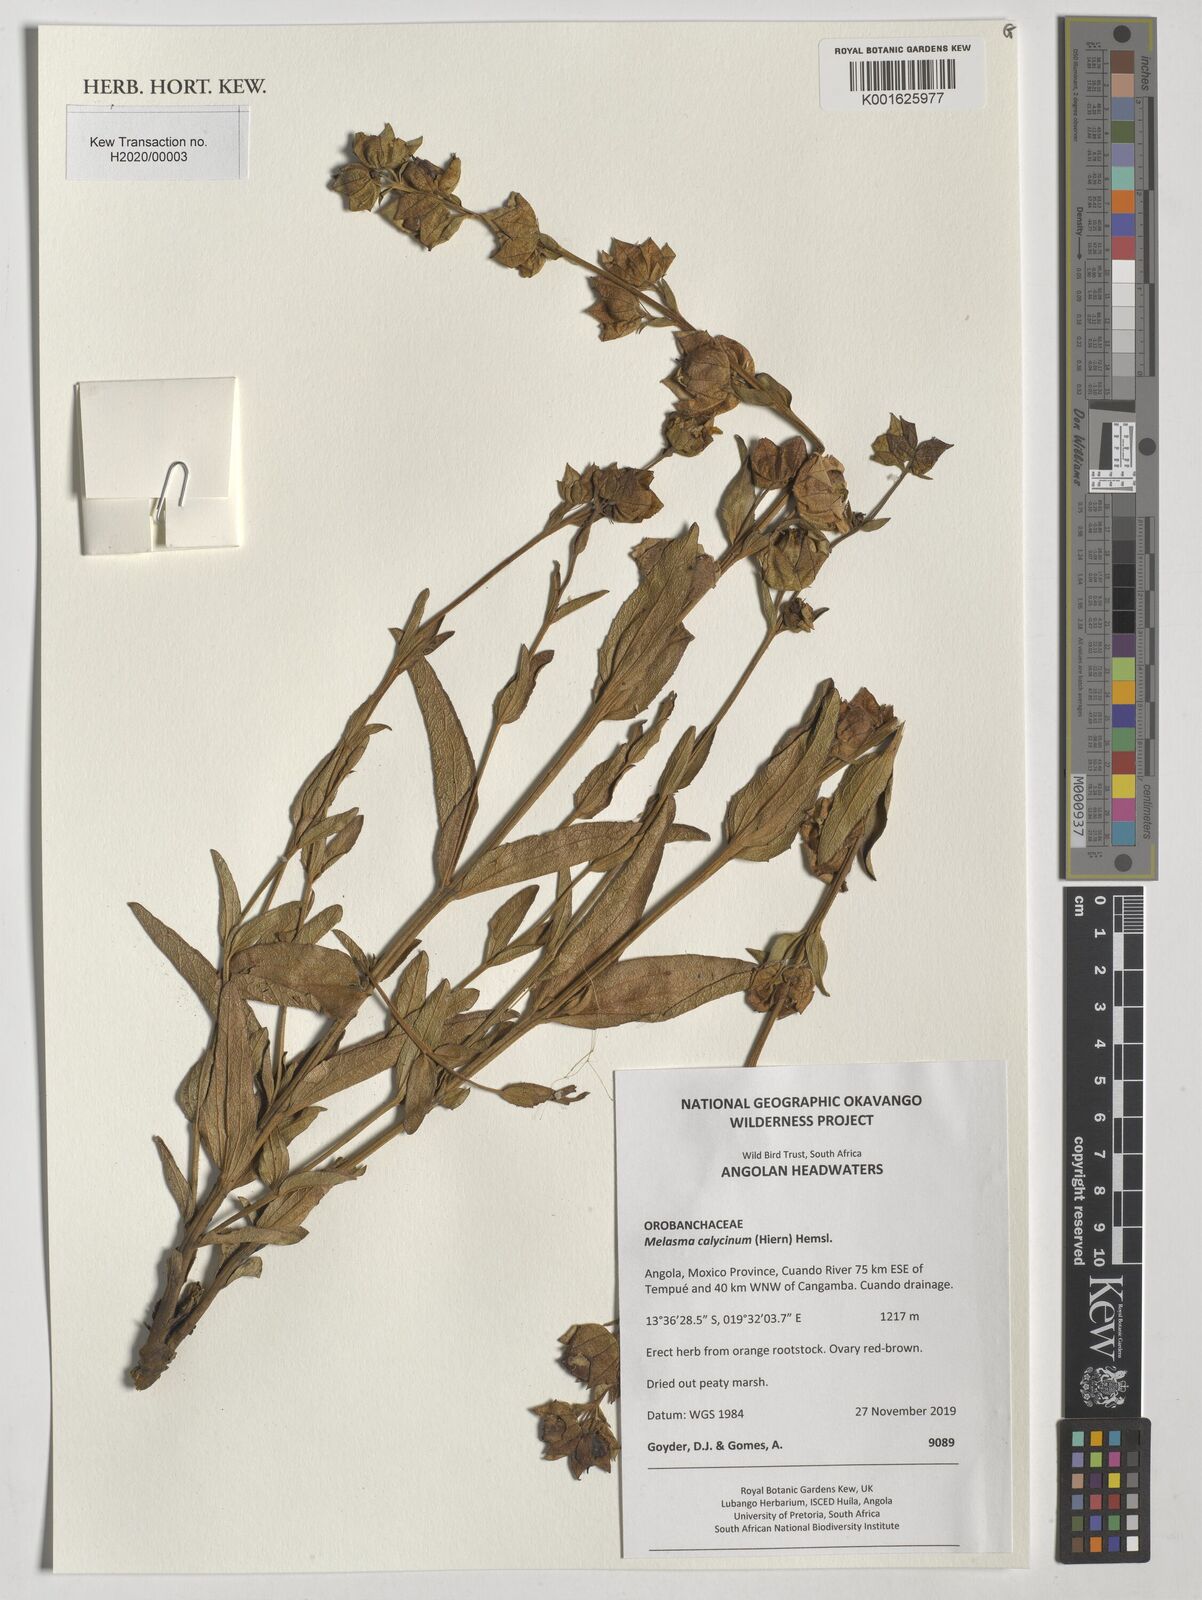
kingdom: Plantae
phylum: Tracheophyta
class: Magnoliopsida
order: Lamiales
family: Orobanchaceae
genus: Melasma
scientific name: Melasma
